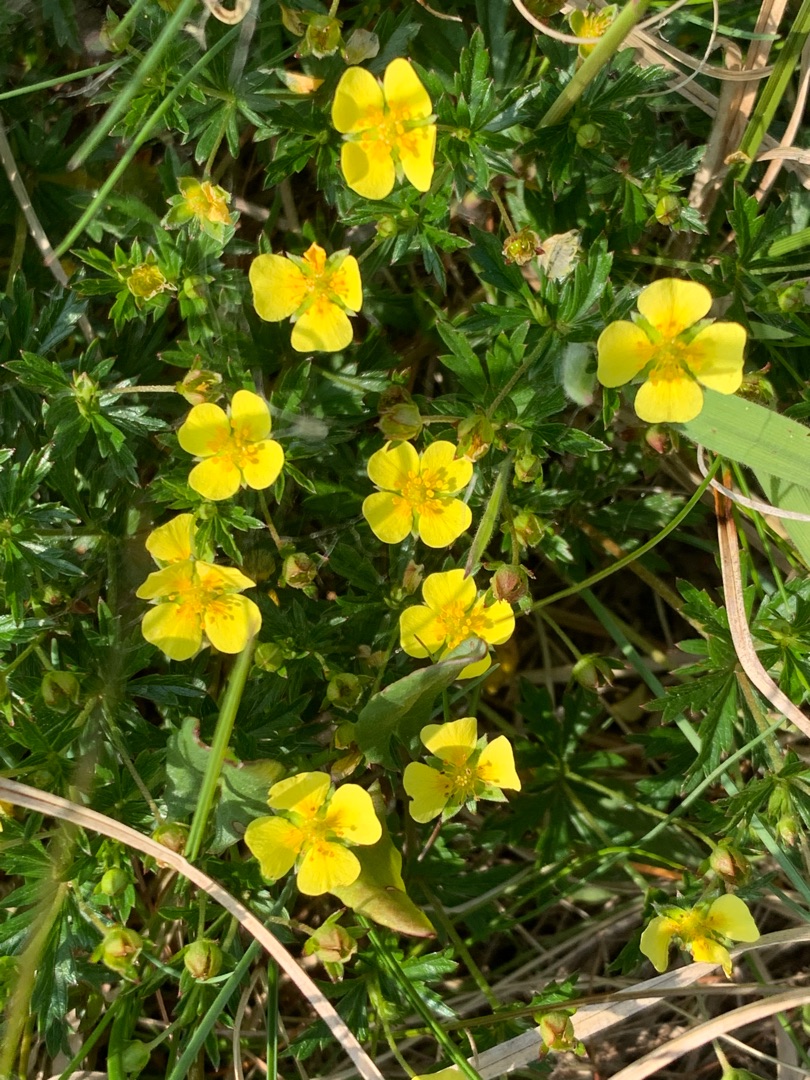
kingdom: Plantae
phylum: Tracheophyta
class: Magnoliopsida
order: Rosales
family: Rosaceae
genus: Potentilla
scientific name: Potentilla erecta
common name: Tormentil
